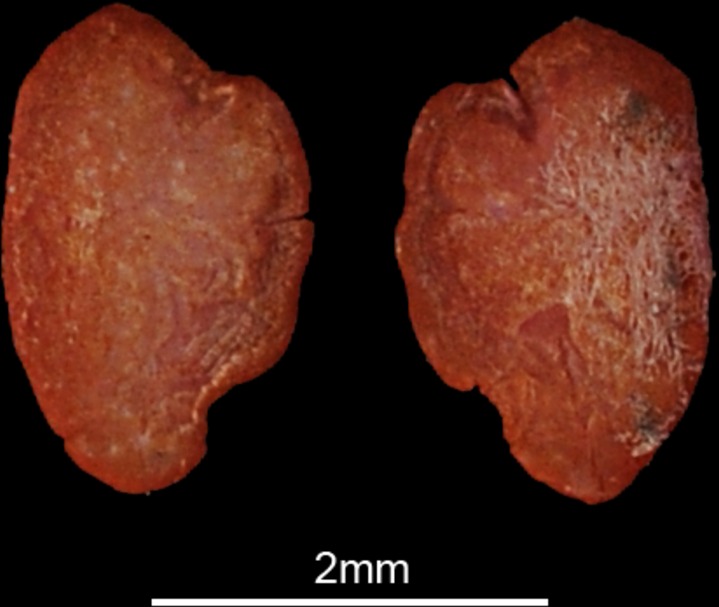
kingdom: Animalia
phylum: Chordata
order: Scorpaeniformes
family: Peristediidae
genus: Peristedion
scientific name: Peristedion cataphractum
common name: Armed gurnard
